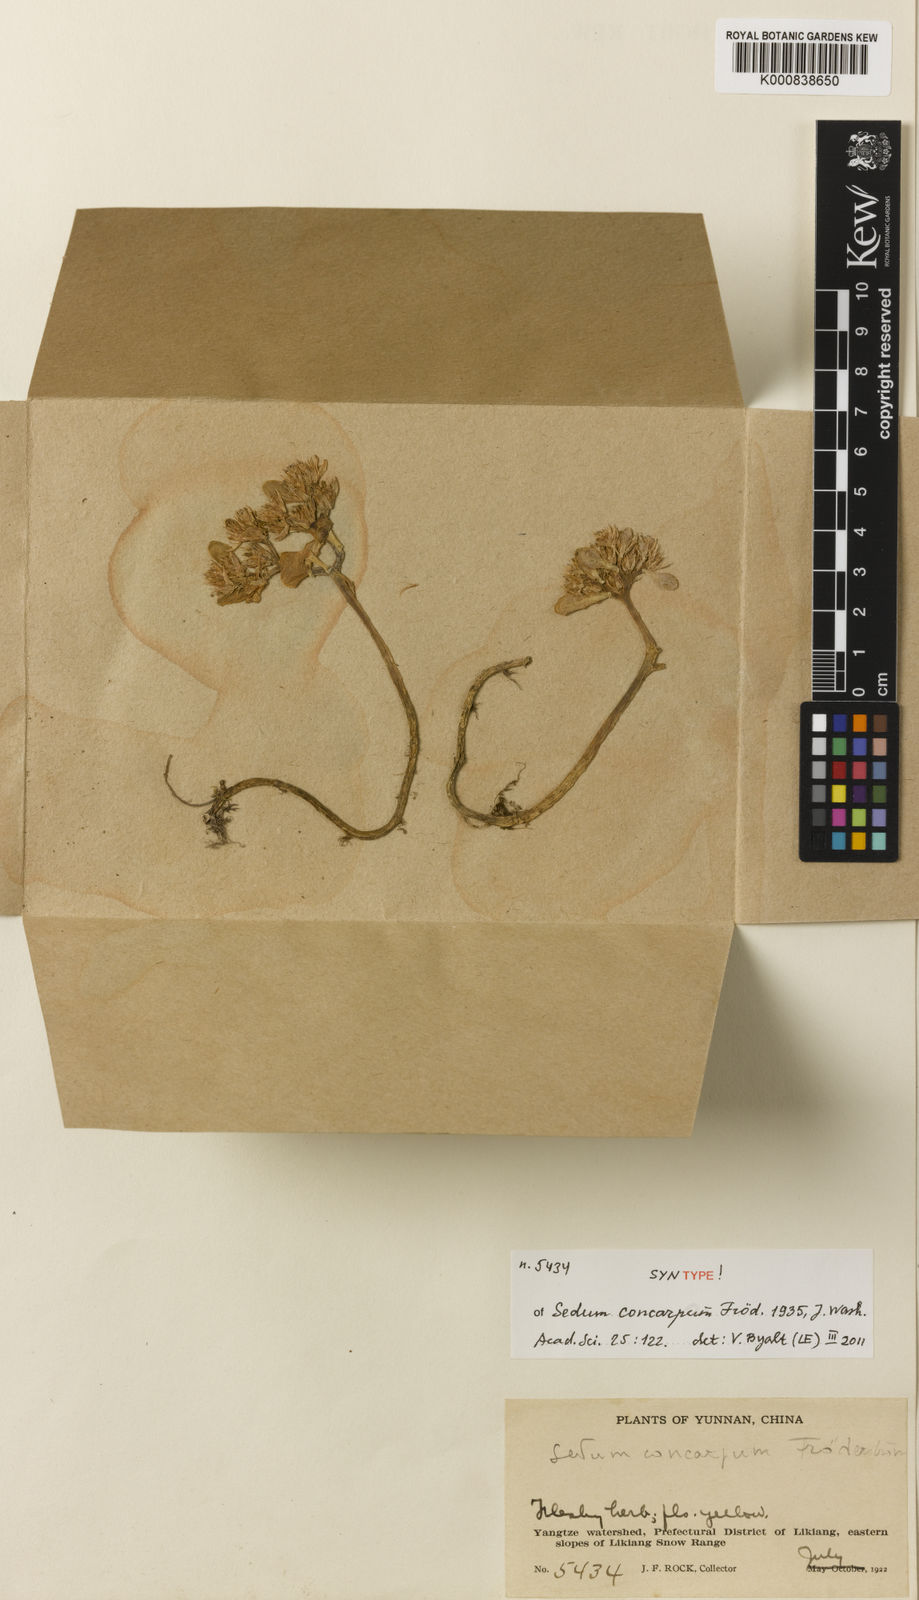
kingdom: Plantae
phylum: Tracheophyta
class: Magnoliopsida
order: Saxifragales
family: Crassulaceae
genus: Sedum
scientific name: Sedum
